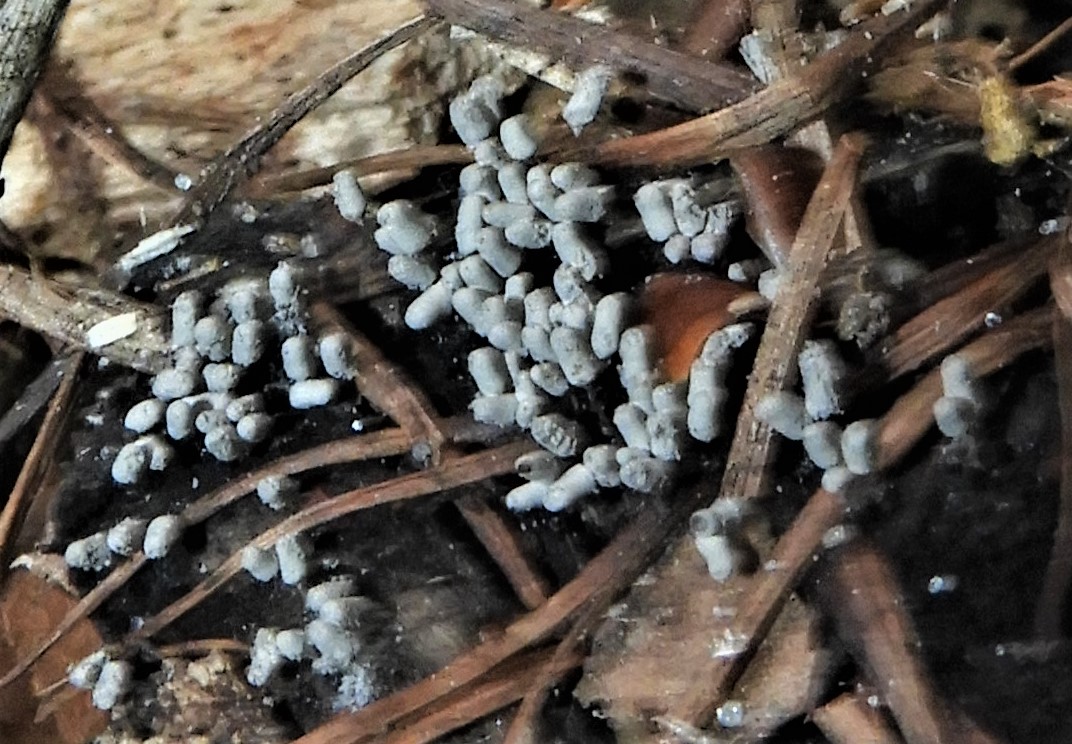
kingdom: Protozoa
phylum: Mycetozoa
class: Myxomycetes
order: Trichiales
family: Arcyriaceae
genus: Arcyria
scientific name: Arcyria cinerea
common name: White carnival candy slime mold
